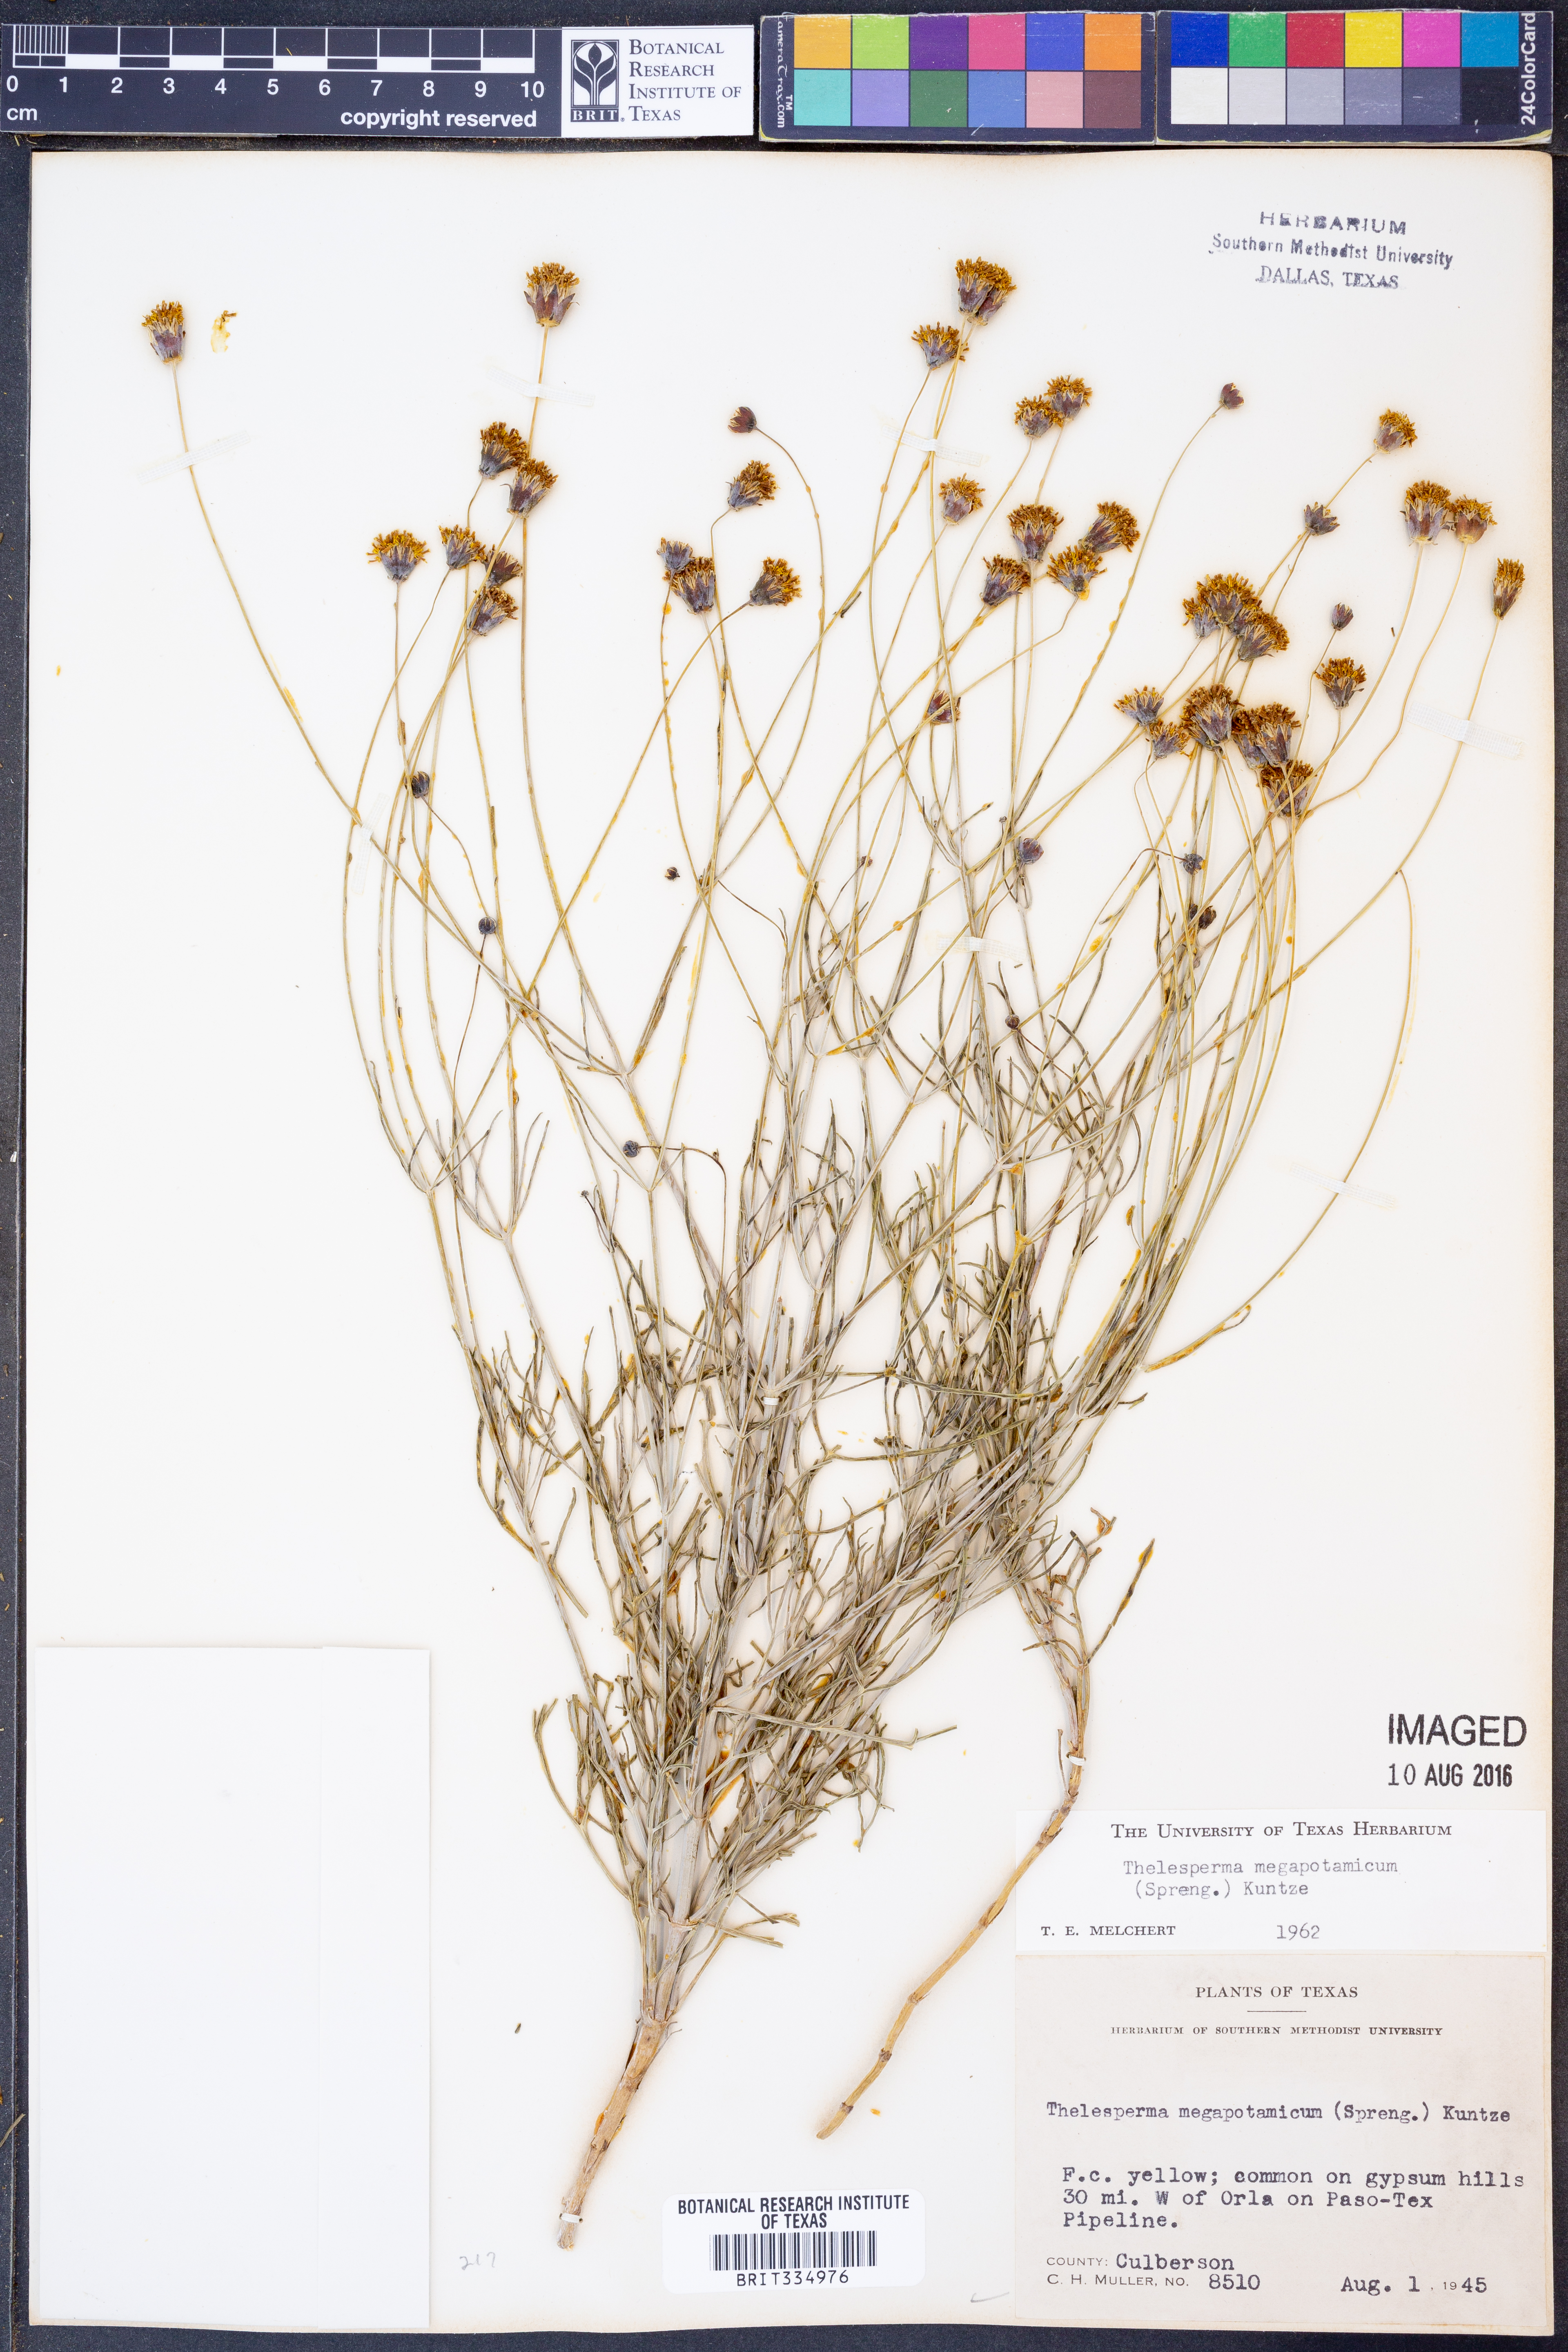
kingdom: Plantae
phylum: Tracheophyta
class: Magnoliopsida
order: Asterales
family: Asteraceae
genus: Thelesperma
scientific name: Thelesperma megapotamicum
